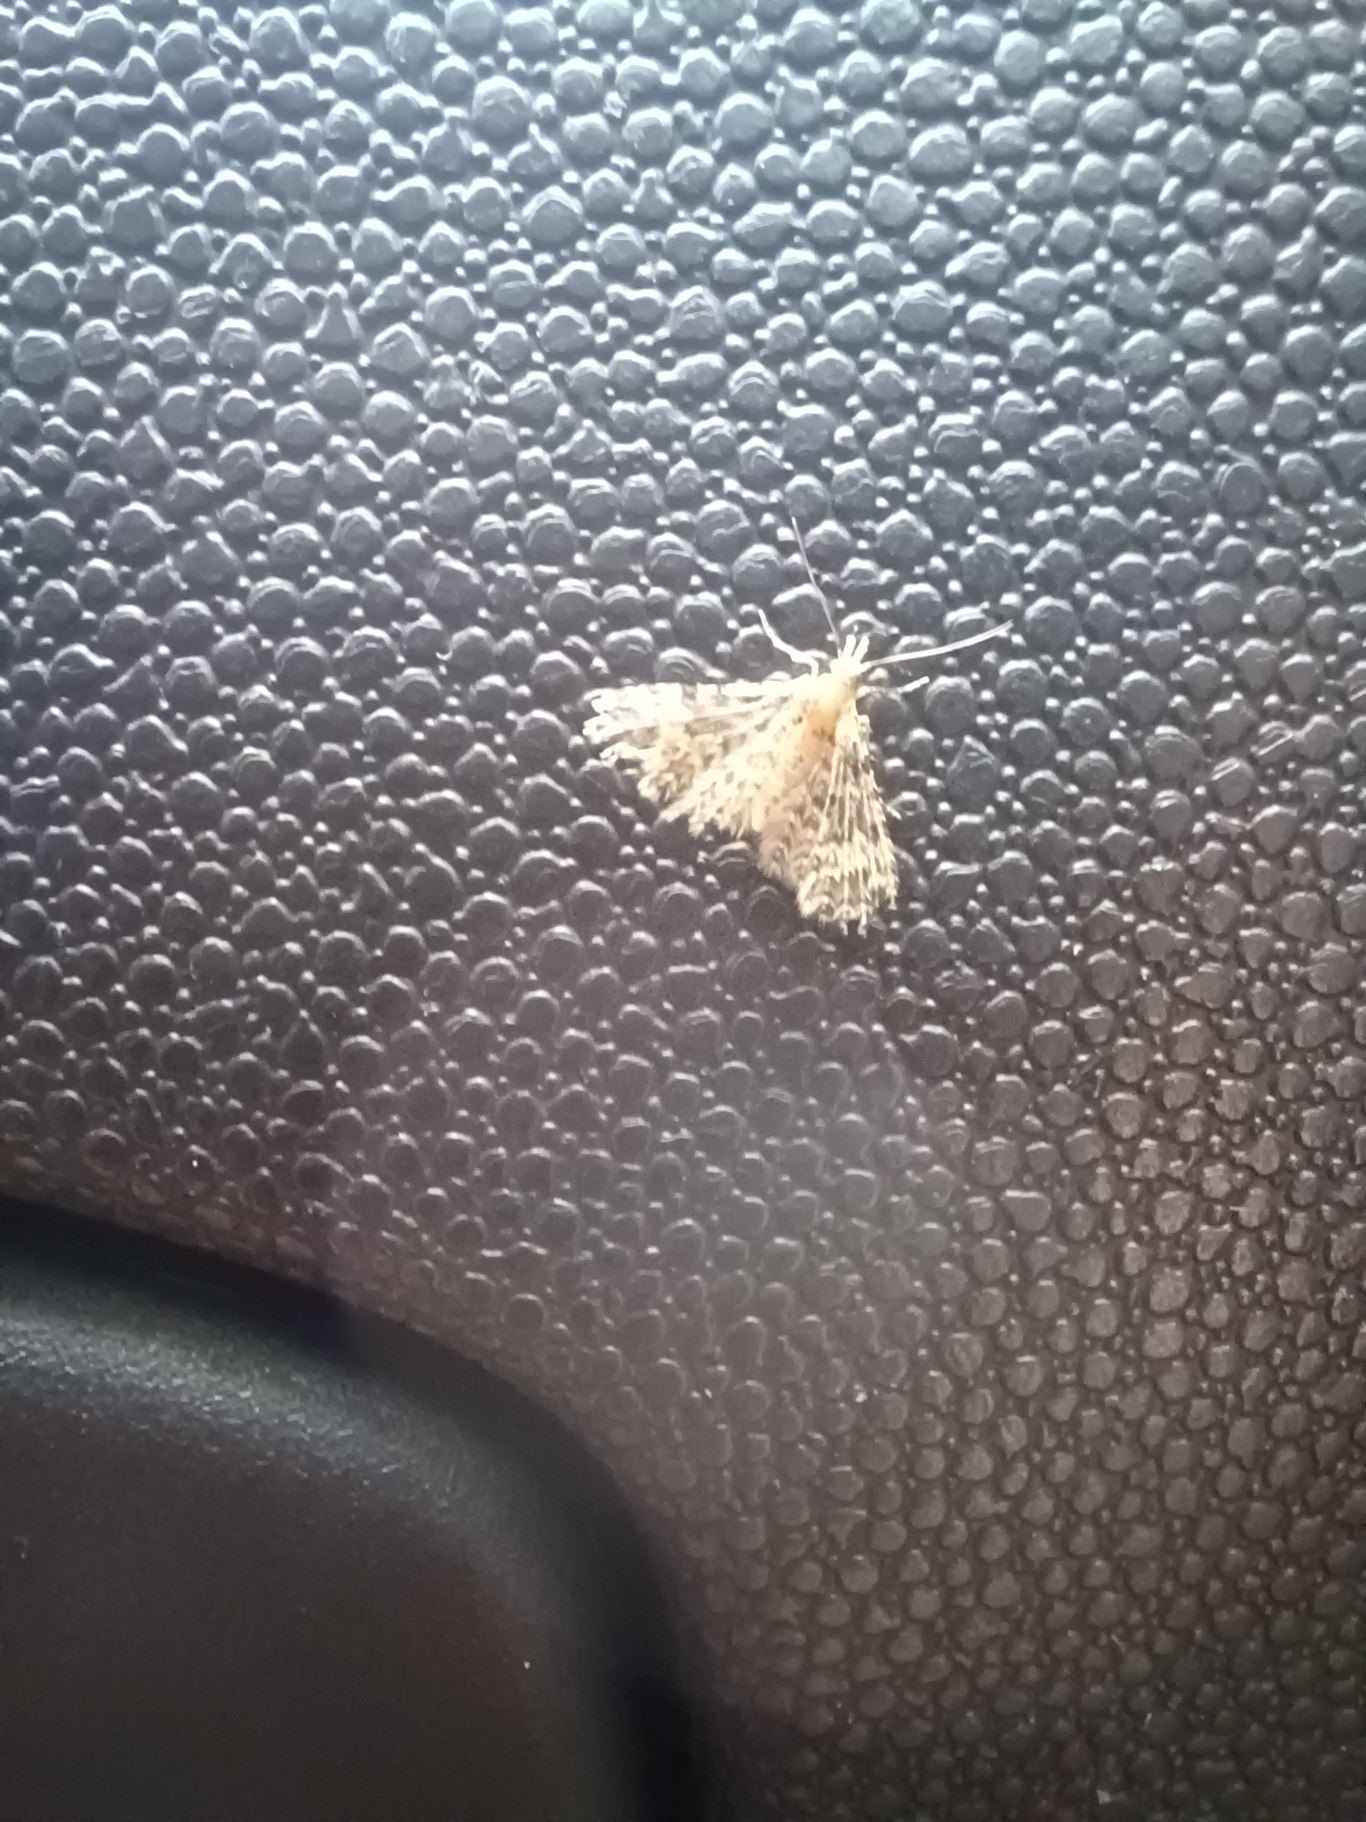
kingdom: Animalia
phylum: Arthropoda
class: Insecta
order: Lepidoptera
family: Alucitidae
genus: Alucita
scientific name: Alucita hexadactyla
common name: Kaprifoliefjermøl
